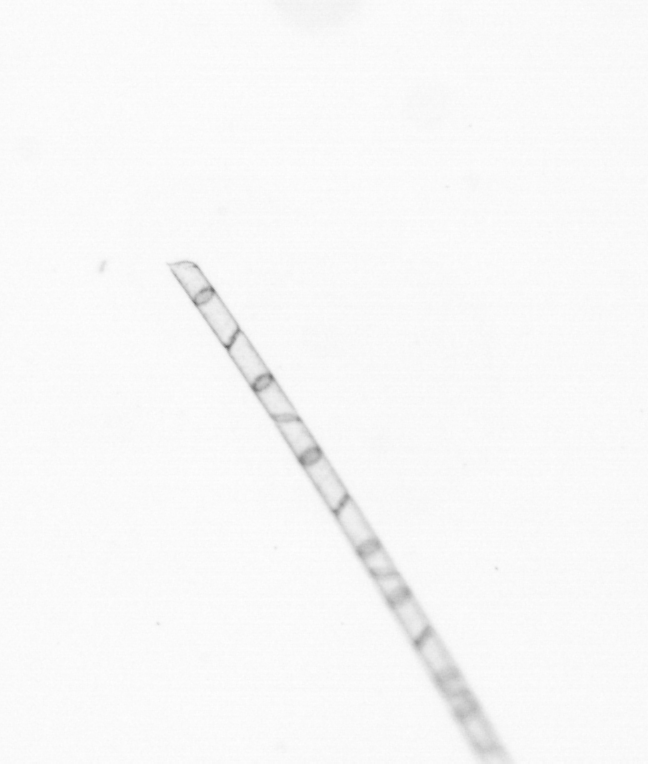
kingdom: Chromista
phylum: Ochrophyta
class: Bacillariophyceae
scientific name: Bacillariophyceae
